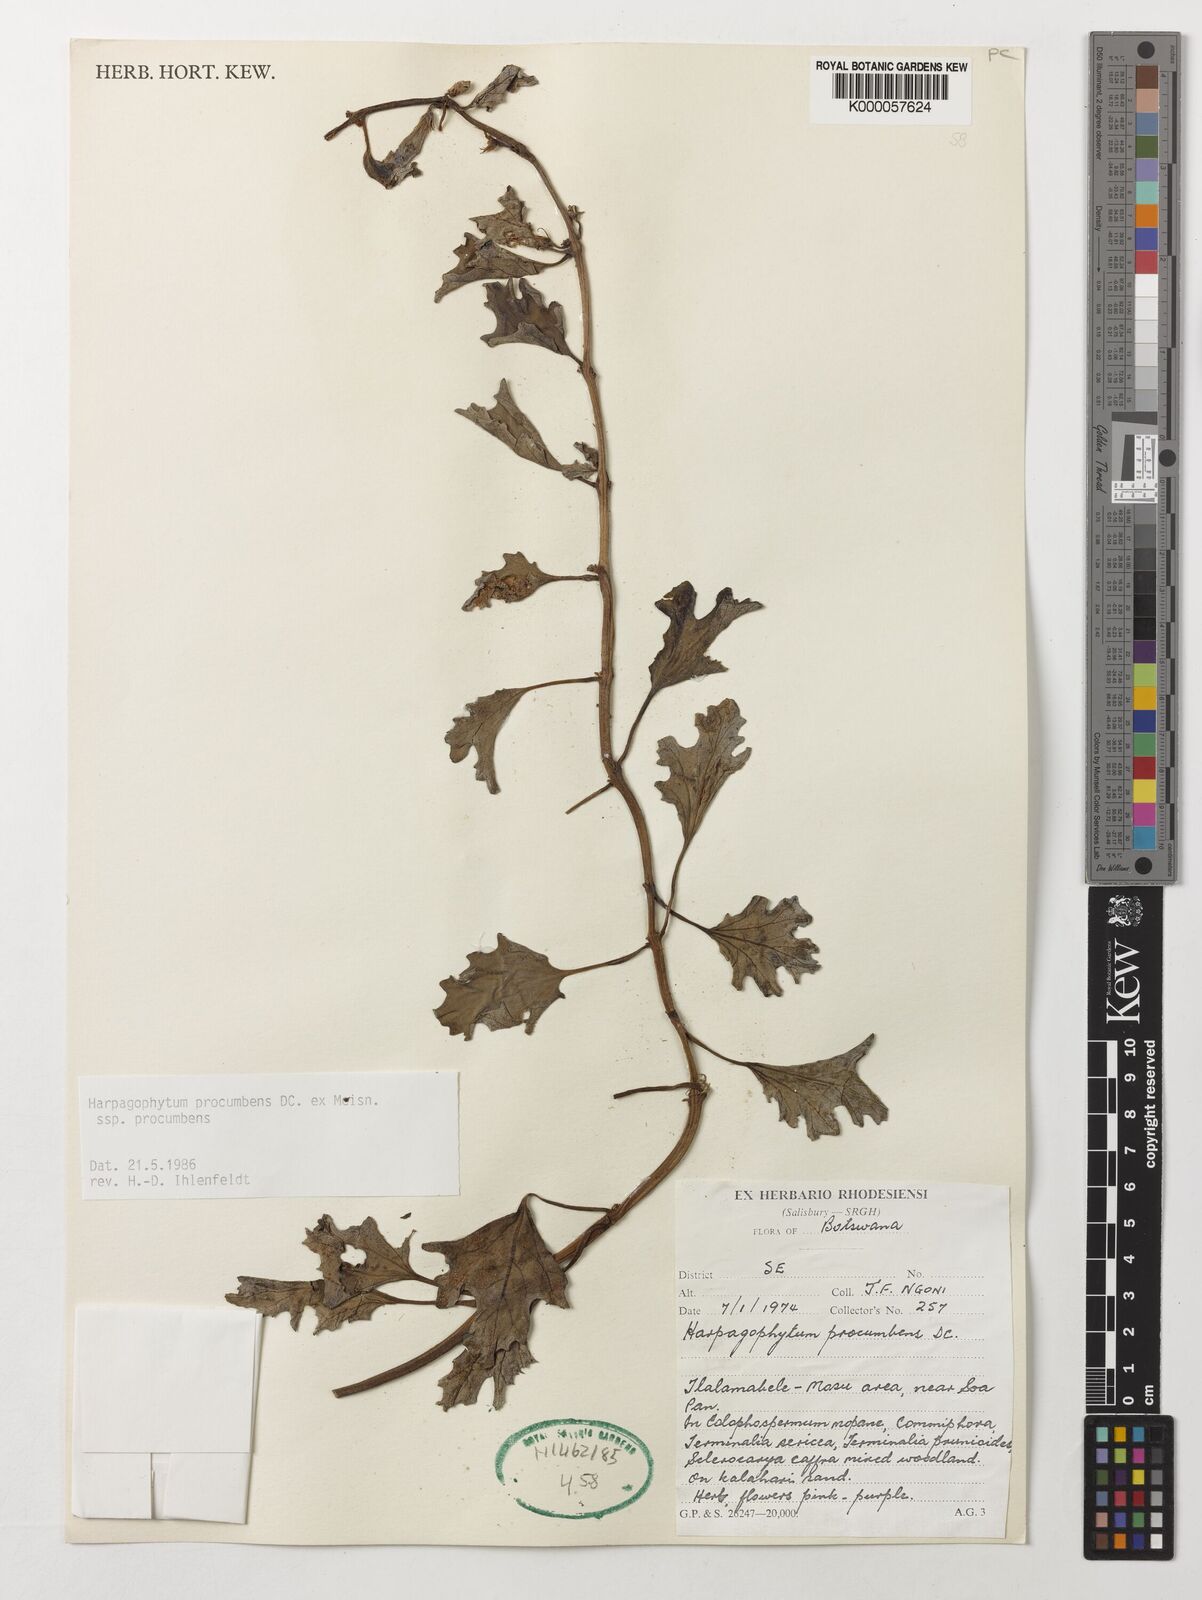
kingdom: Plantae
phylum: Tracheophyta
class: Magnoliopsida
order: Lamiales
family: Pedaliaceae
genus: Harpagophytum
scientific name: Harpagophytum procumbens
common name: Grappleplant
